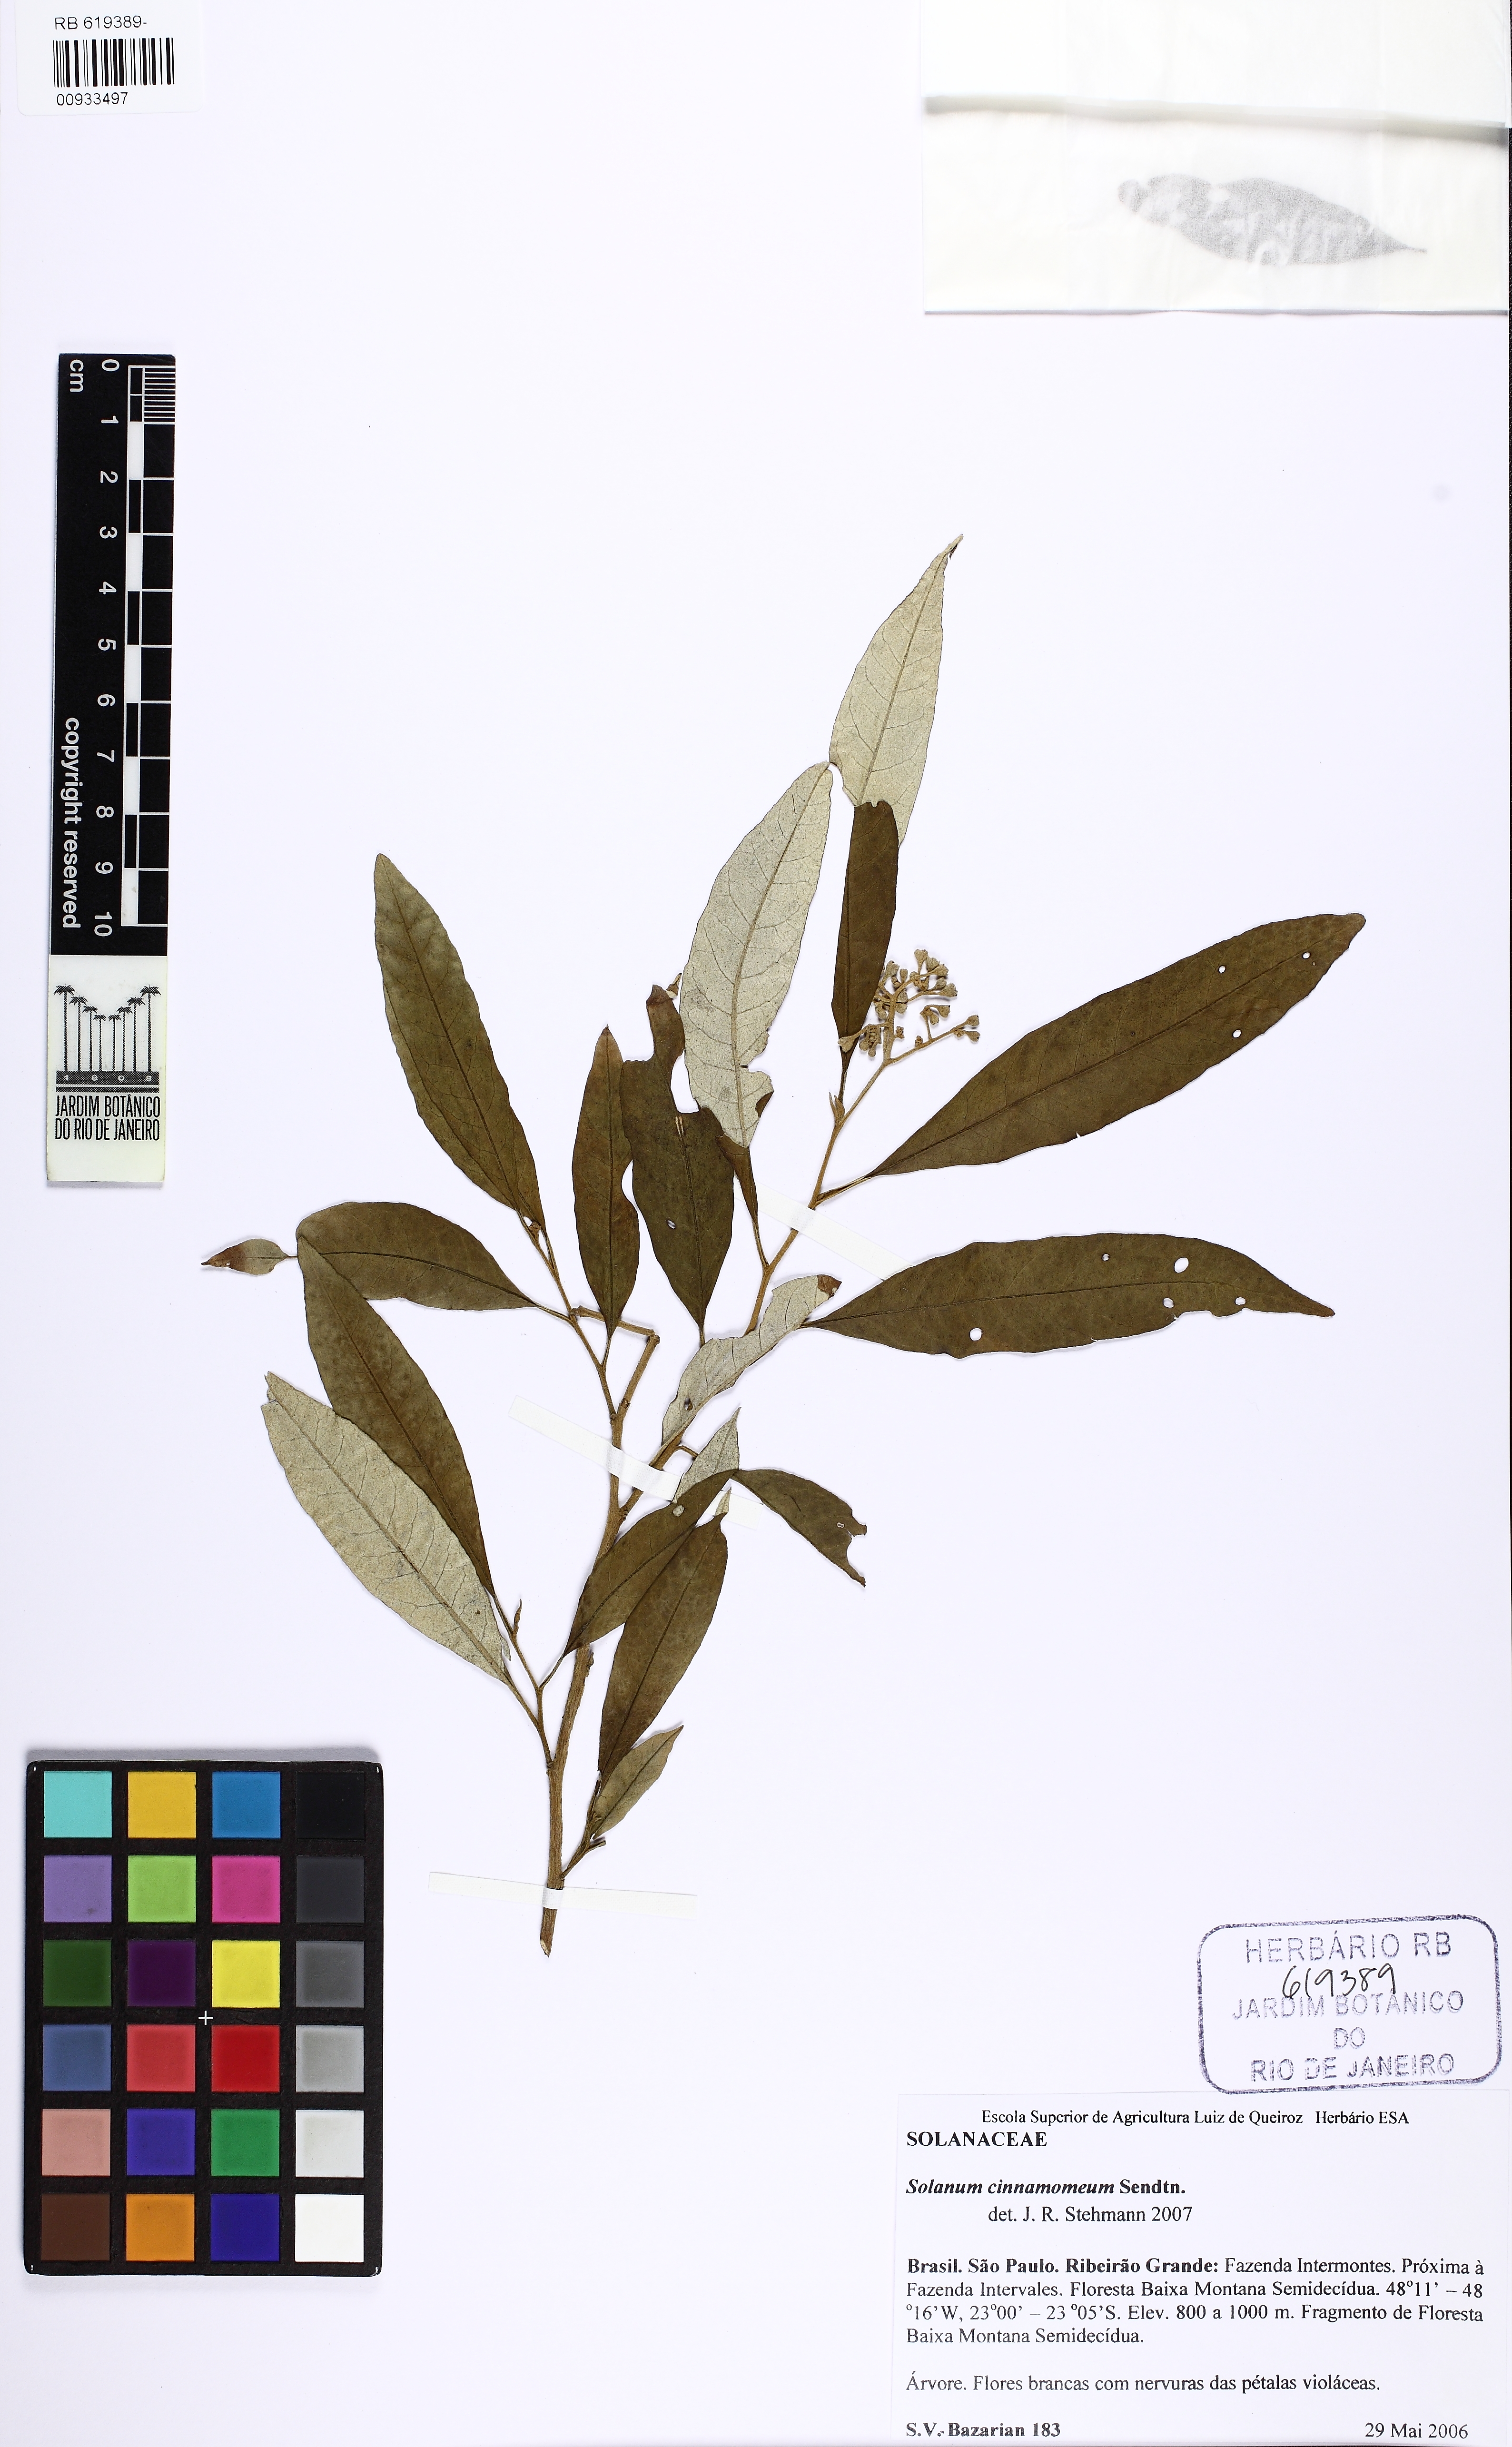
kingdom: Plantae
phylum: Tracheophyta
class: Magnoliopsida
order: Solanales
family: Solanaceae
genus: Solanum
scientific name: Solanum cinnamomeum
